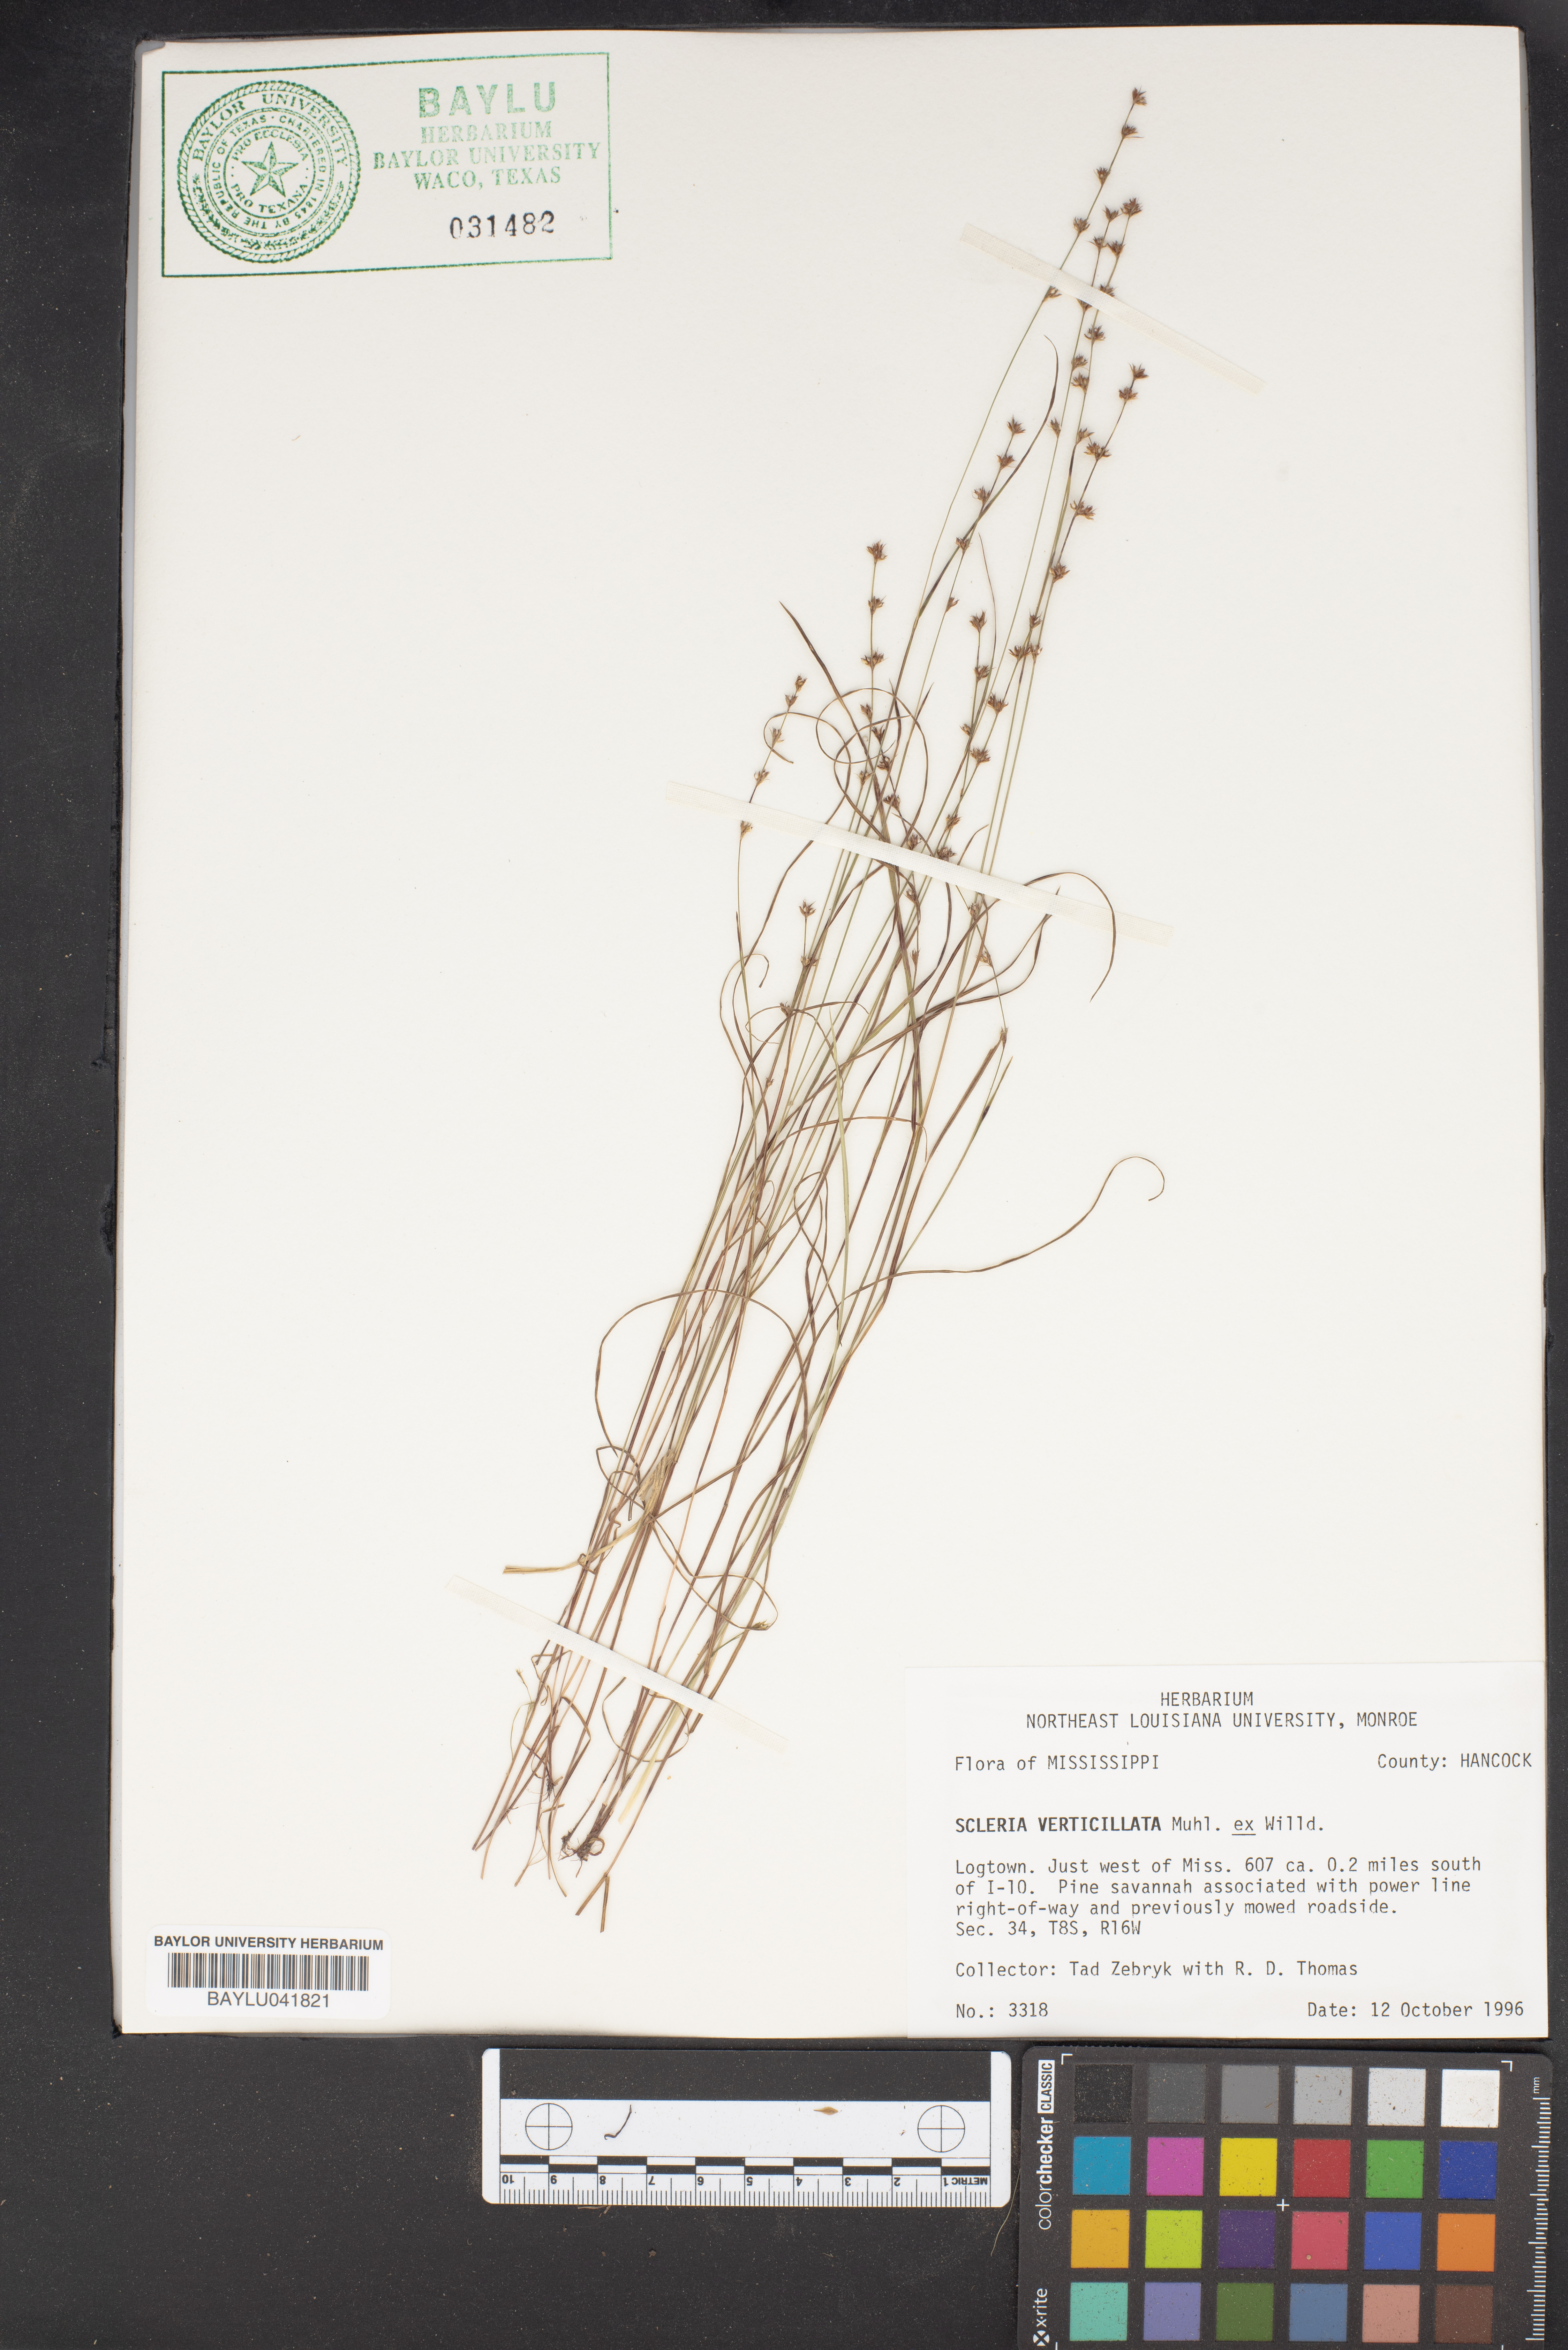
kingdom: Plantae
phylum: Tracheophyta
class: Liliopsida
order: Poales
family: Cyperaceae
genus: Scleria
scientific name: Scleria verticillata
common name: Low nutrush
